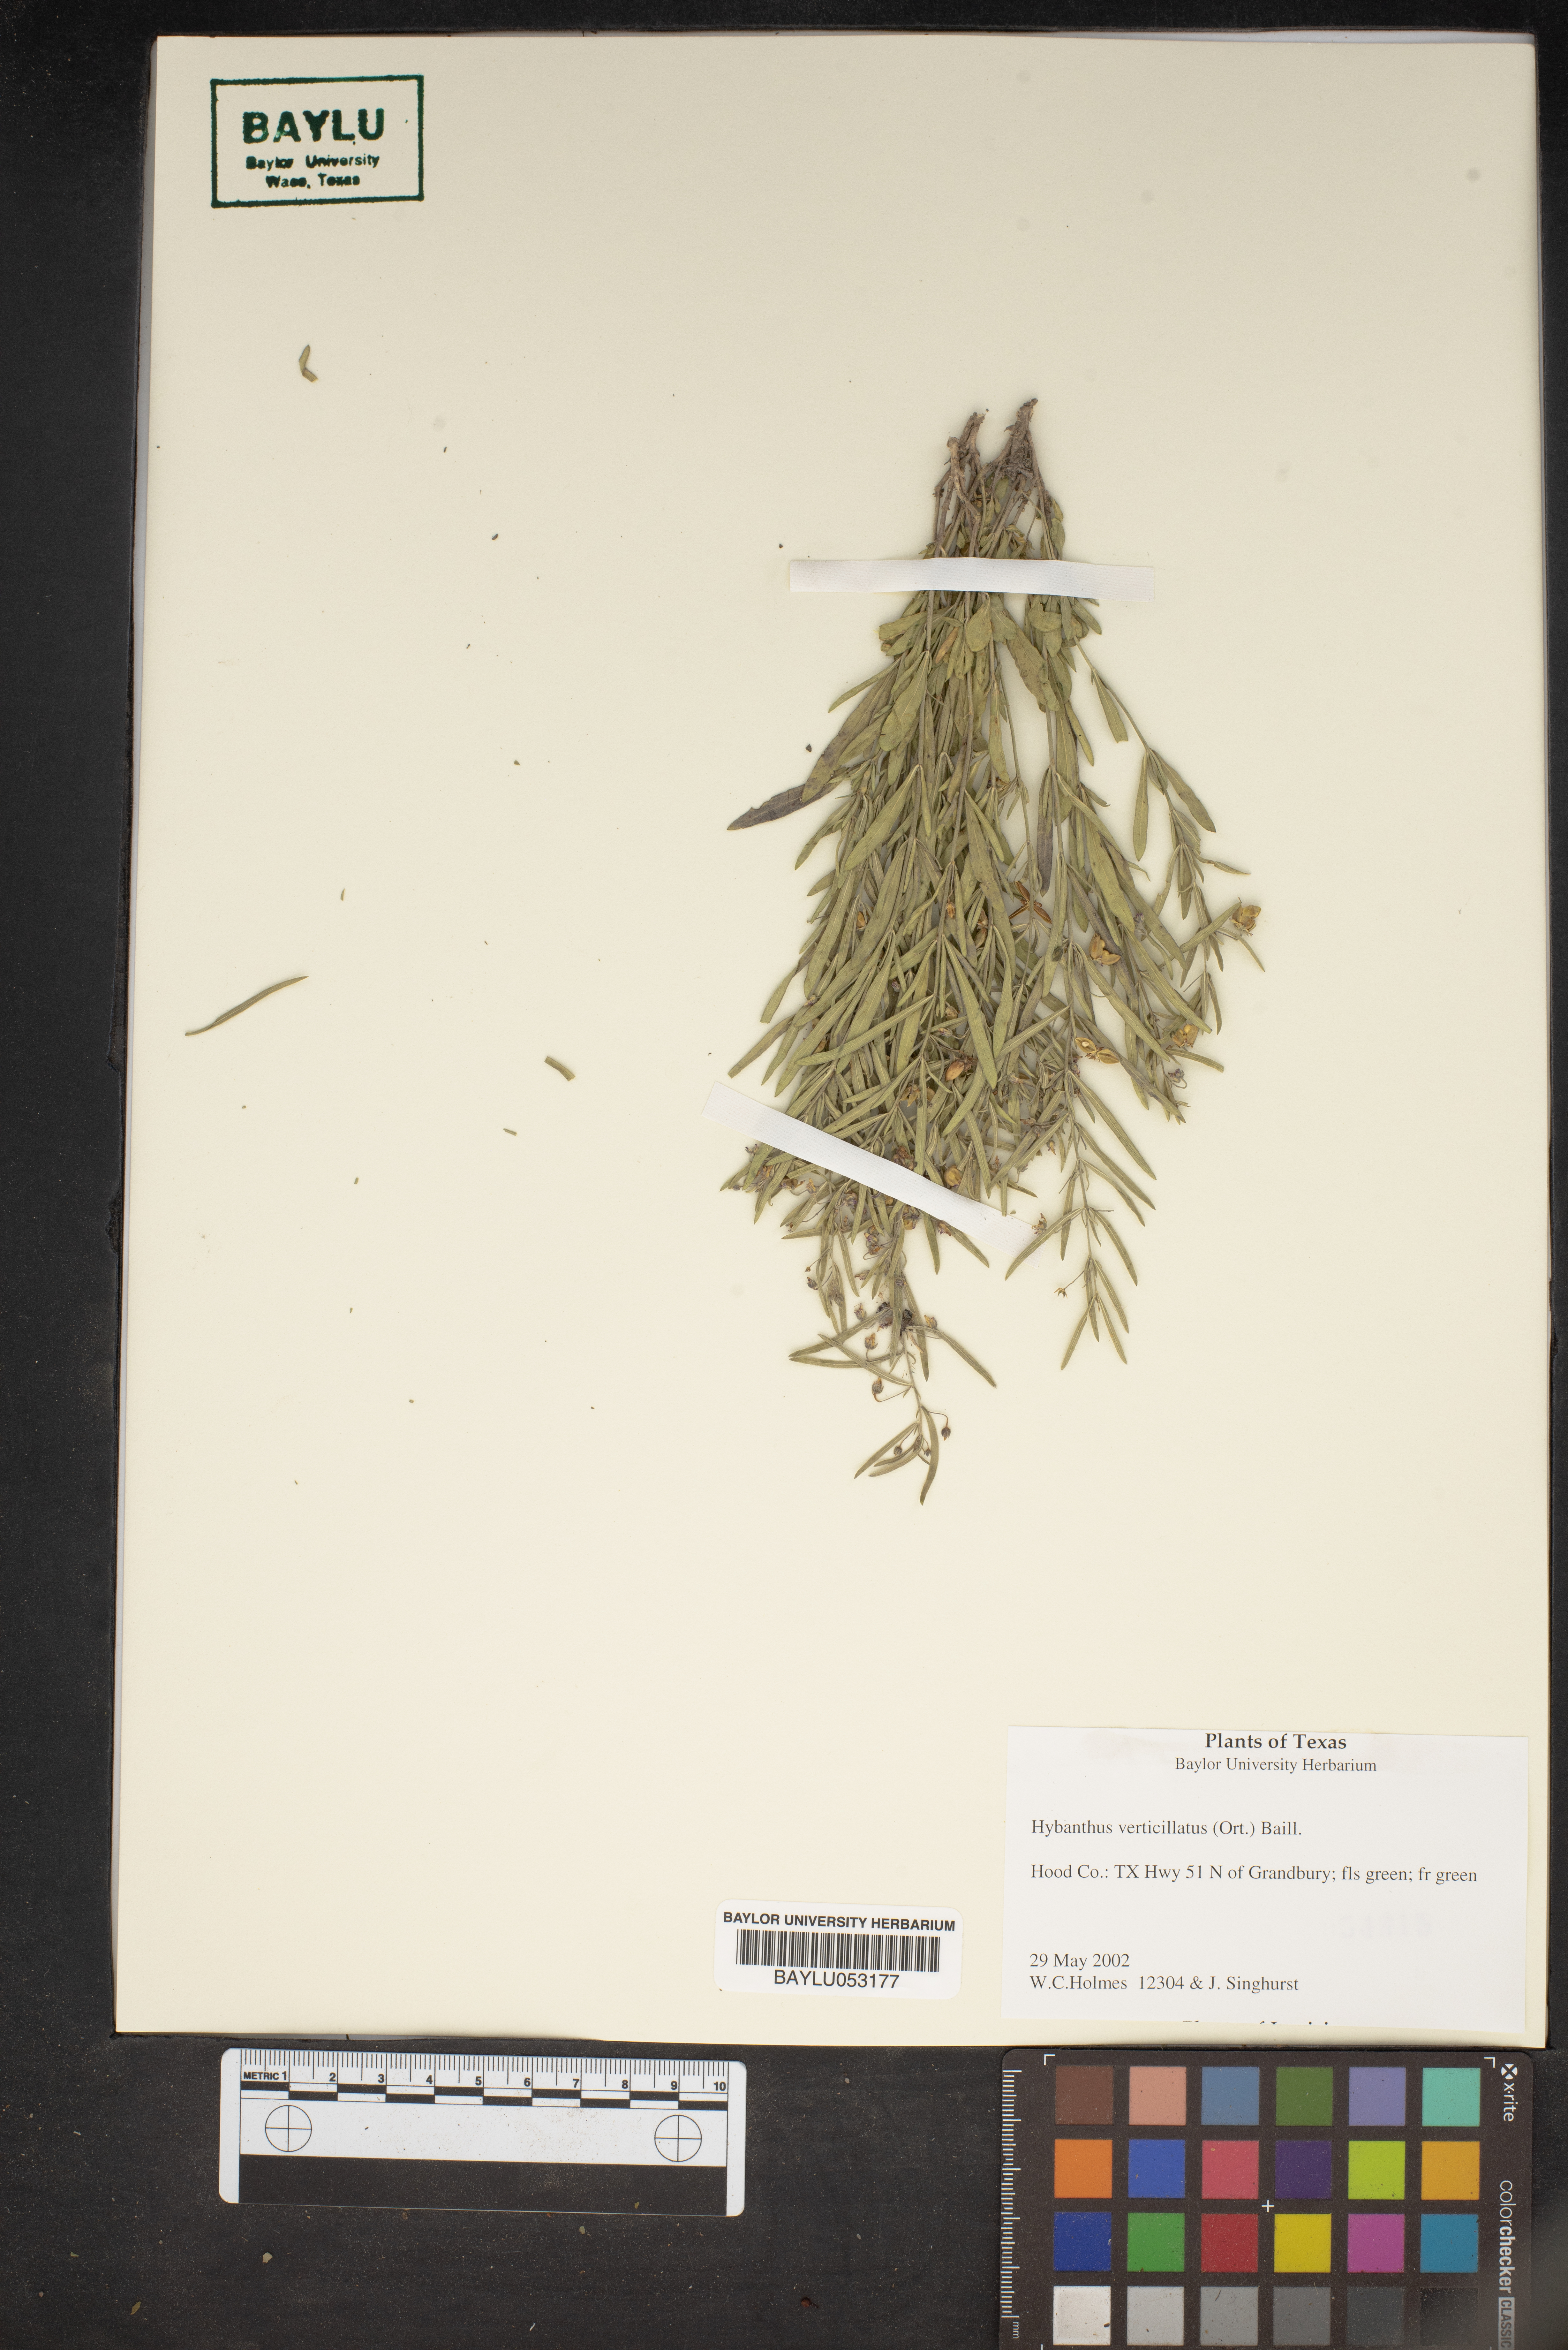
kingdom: Plantae
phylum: Tracheophyta
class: Magnoliopsida
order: Malpighiales
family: Violaceae
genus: Pombalia
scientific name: Pombalia verticillata
